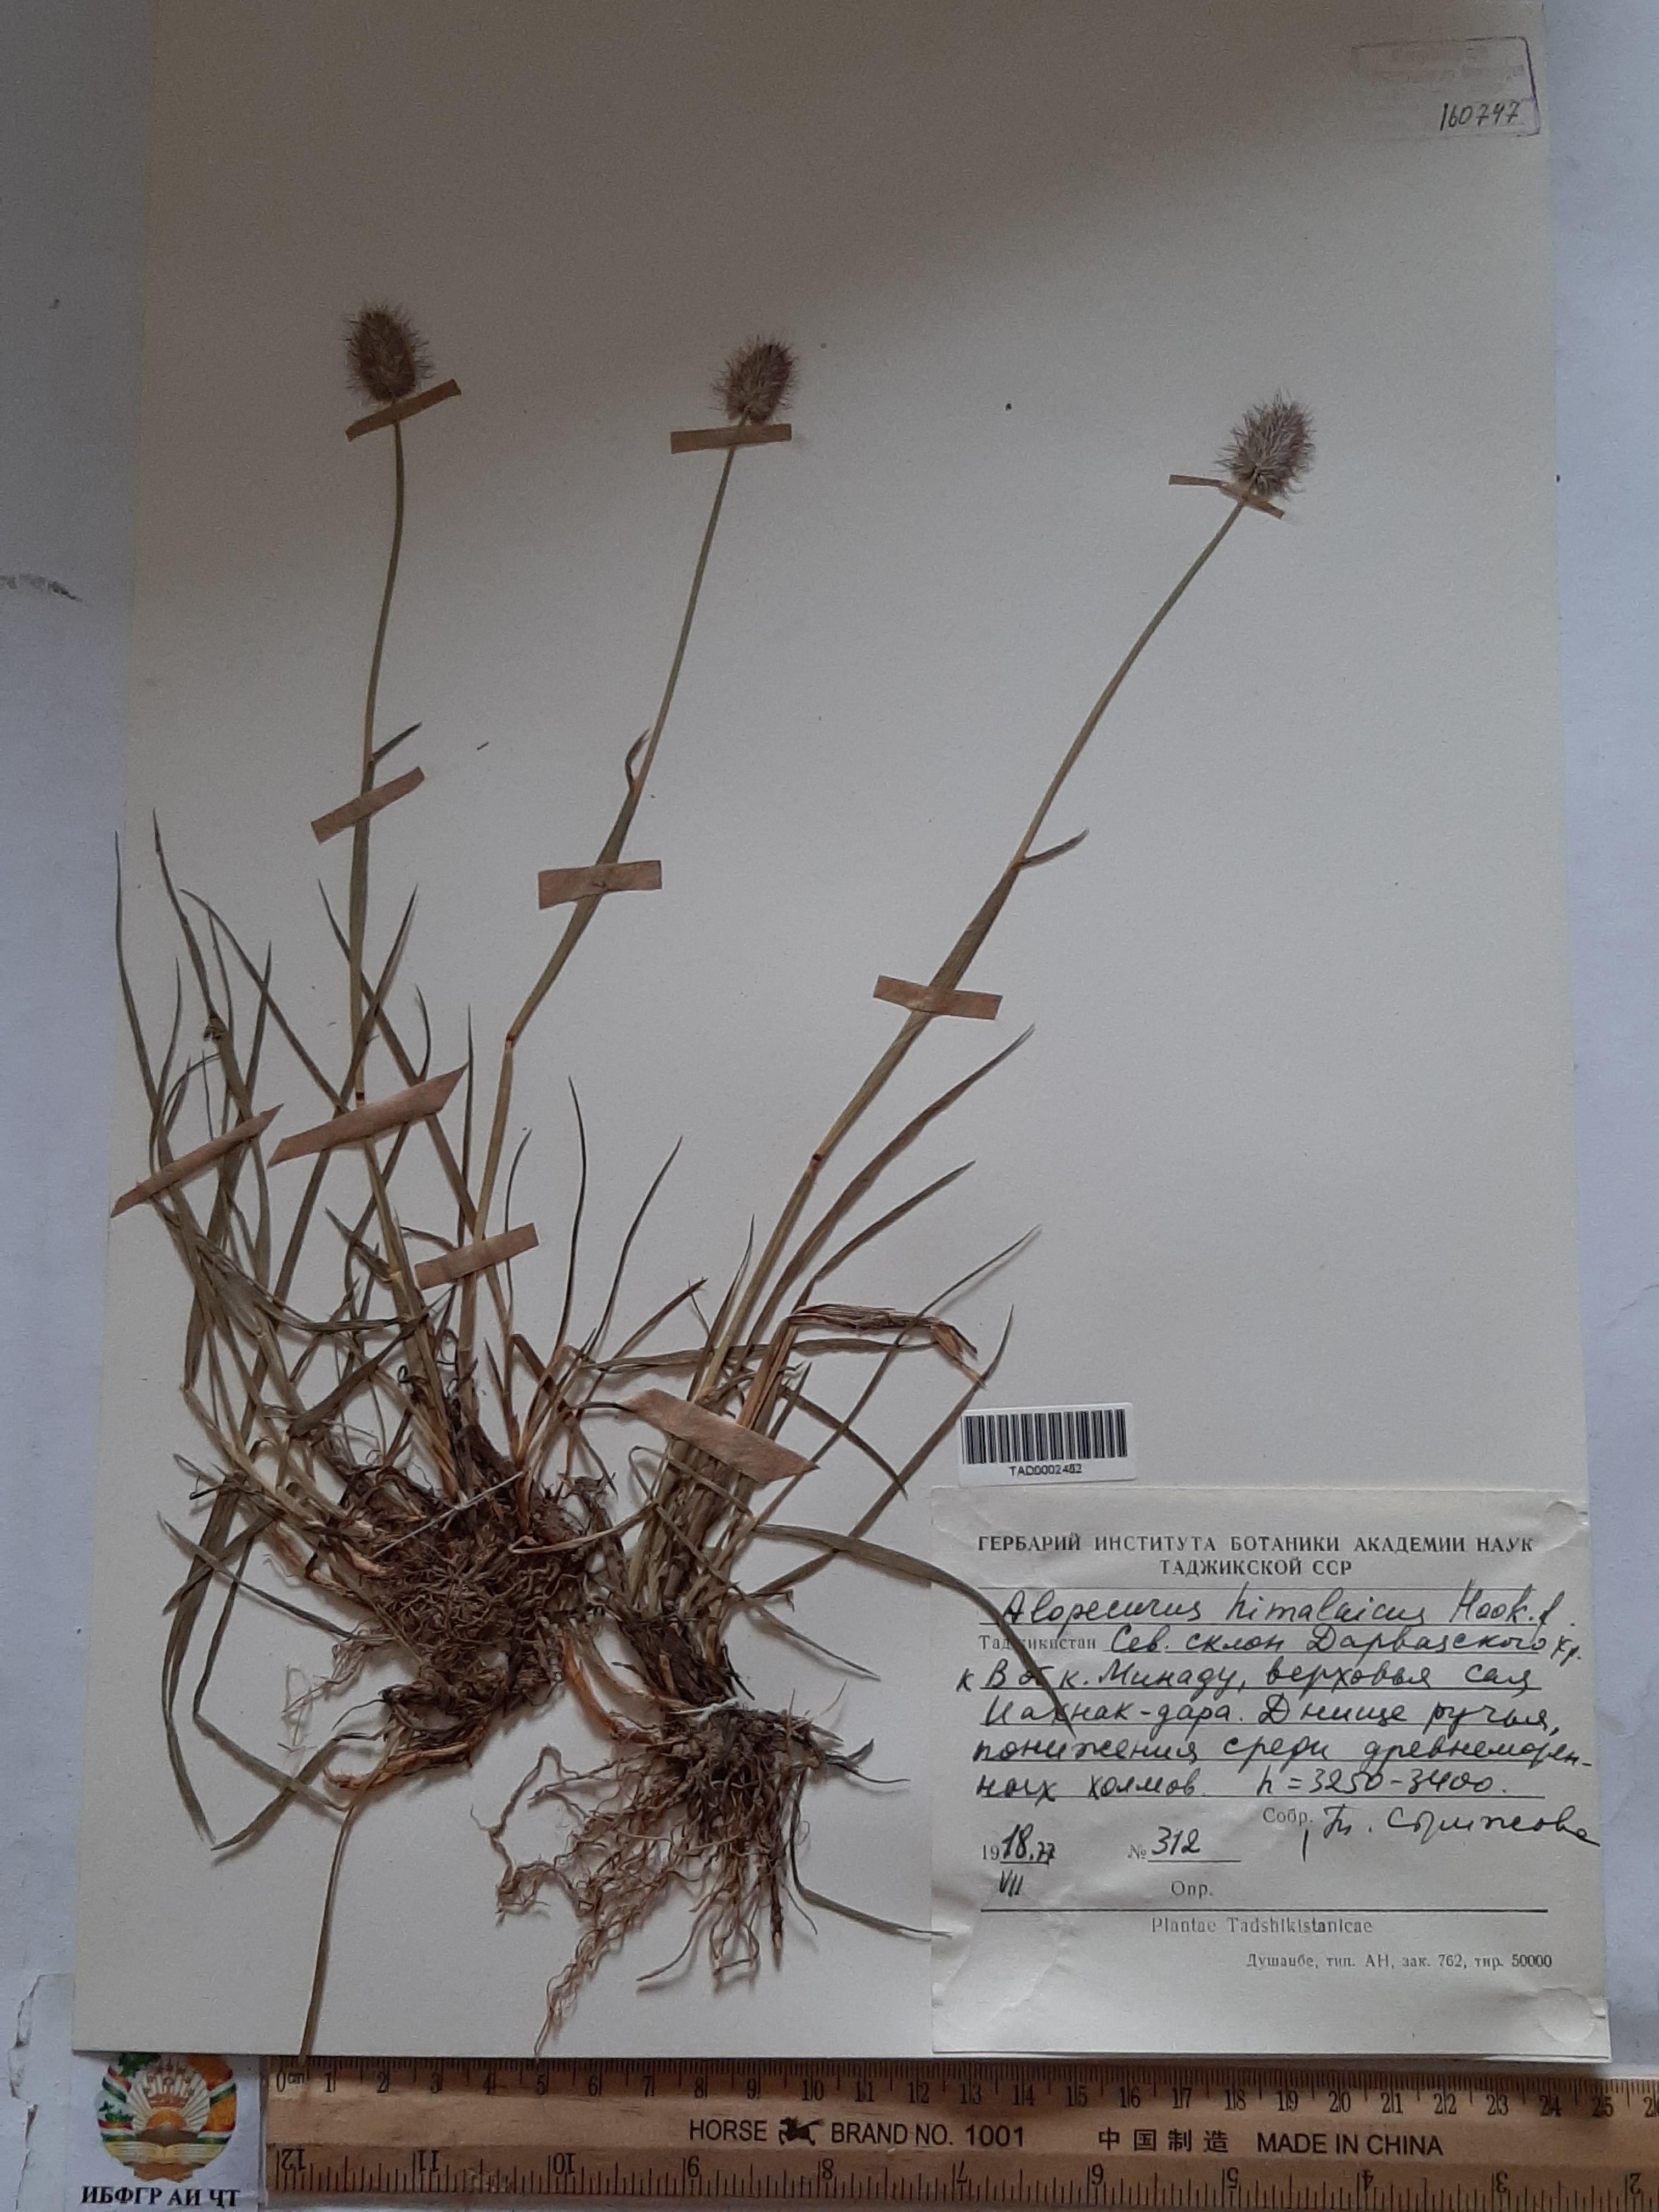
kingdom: Plantae
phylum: Tracheophyta
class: Liliopsida
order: Poales
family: Poaceae
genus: Alopecurus
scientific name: Alopecurus himalaicus
